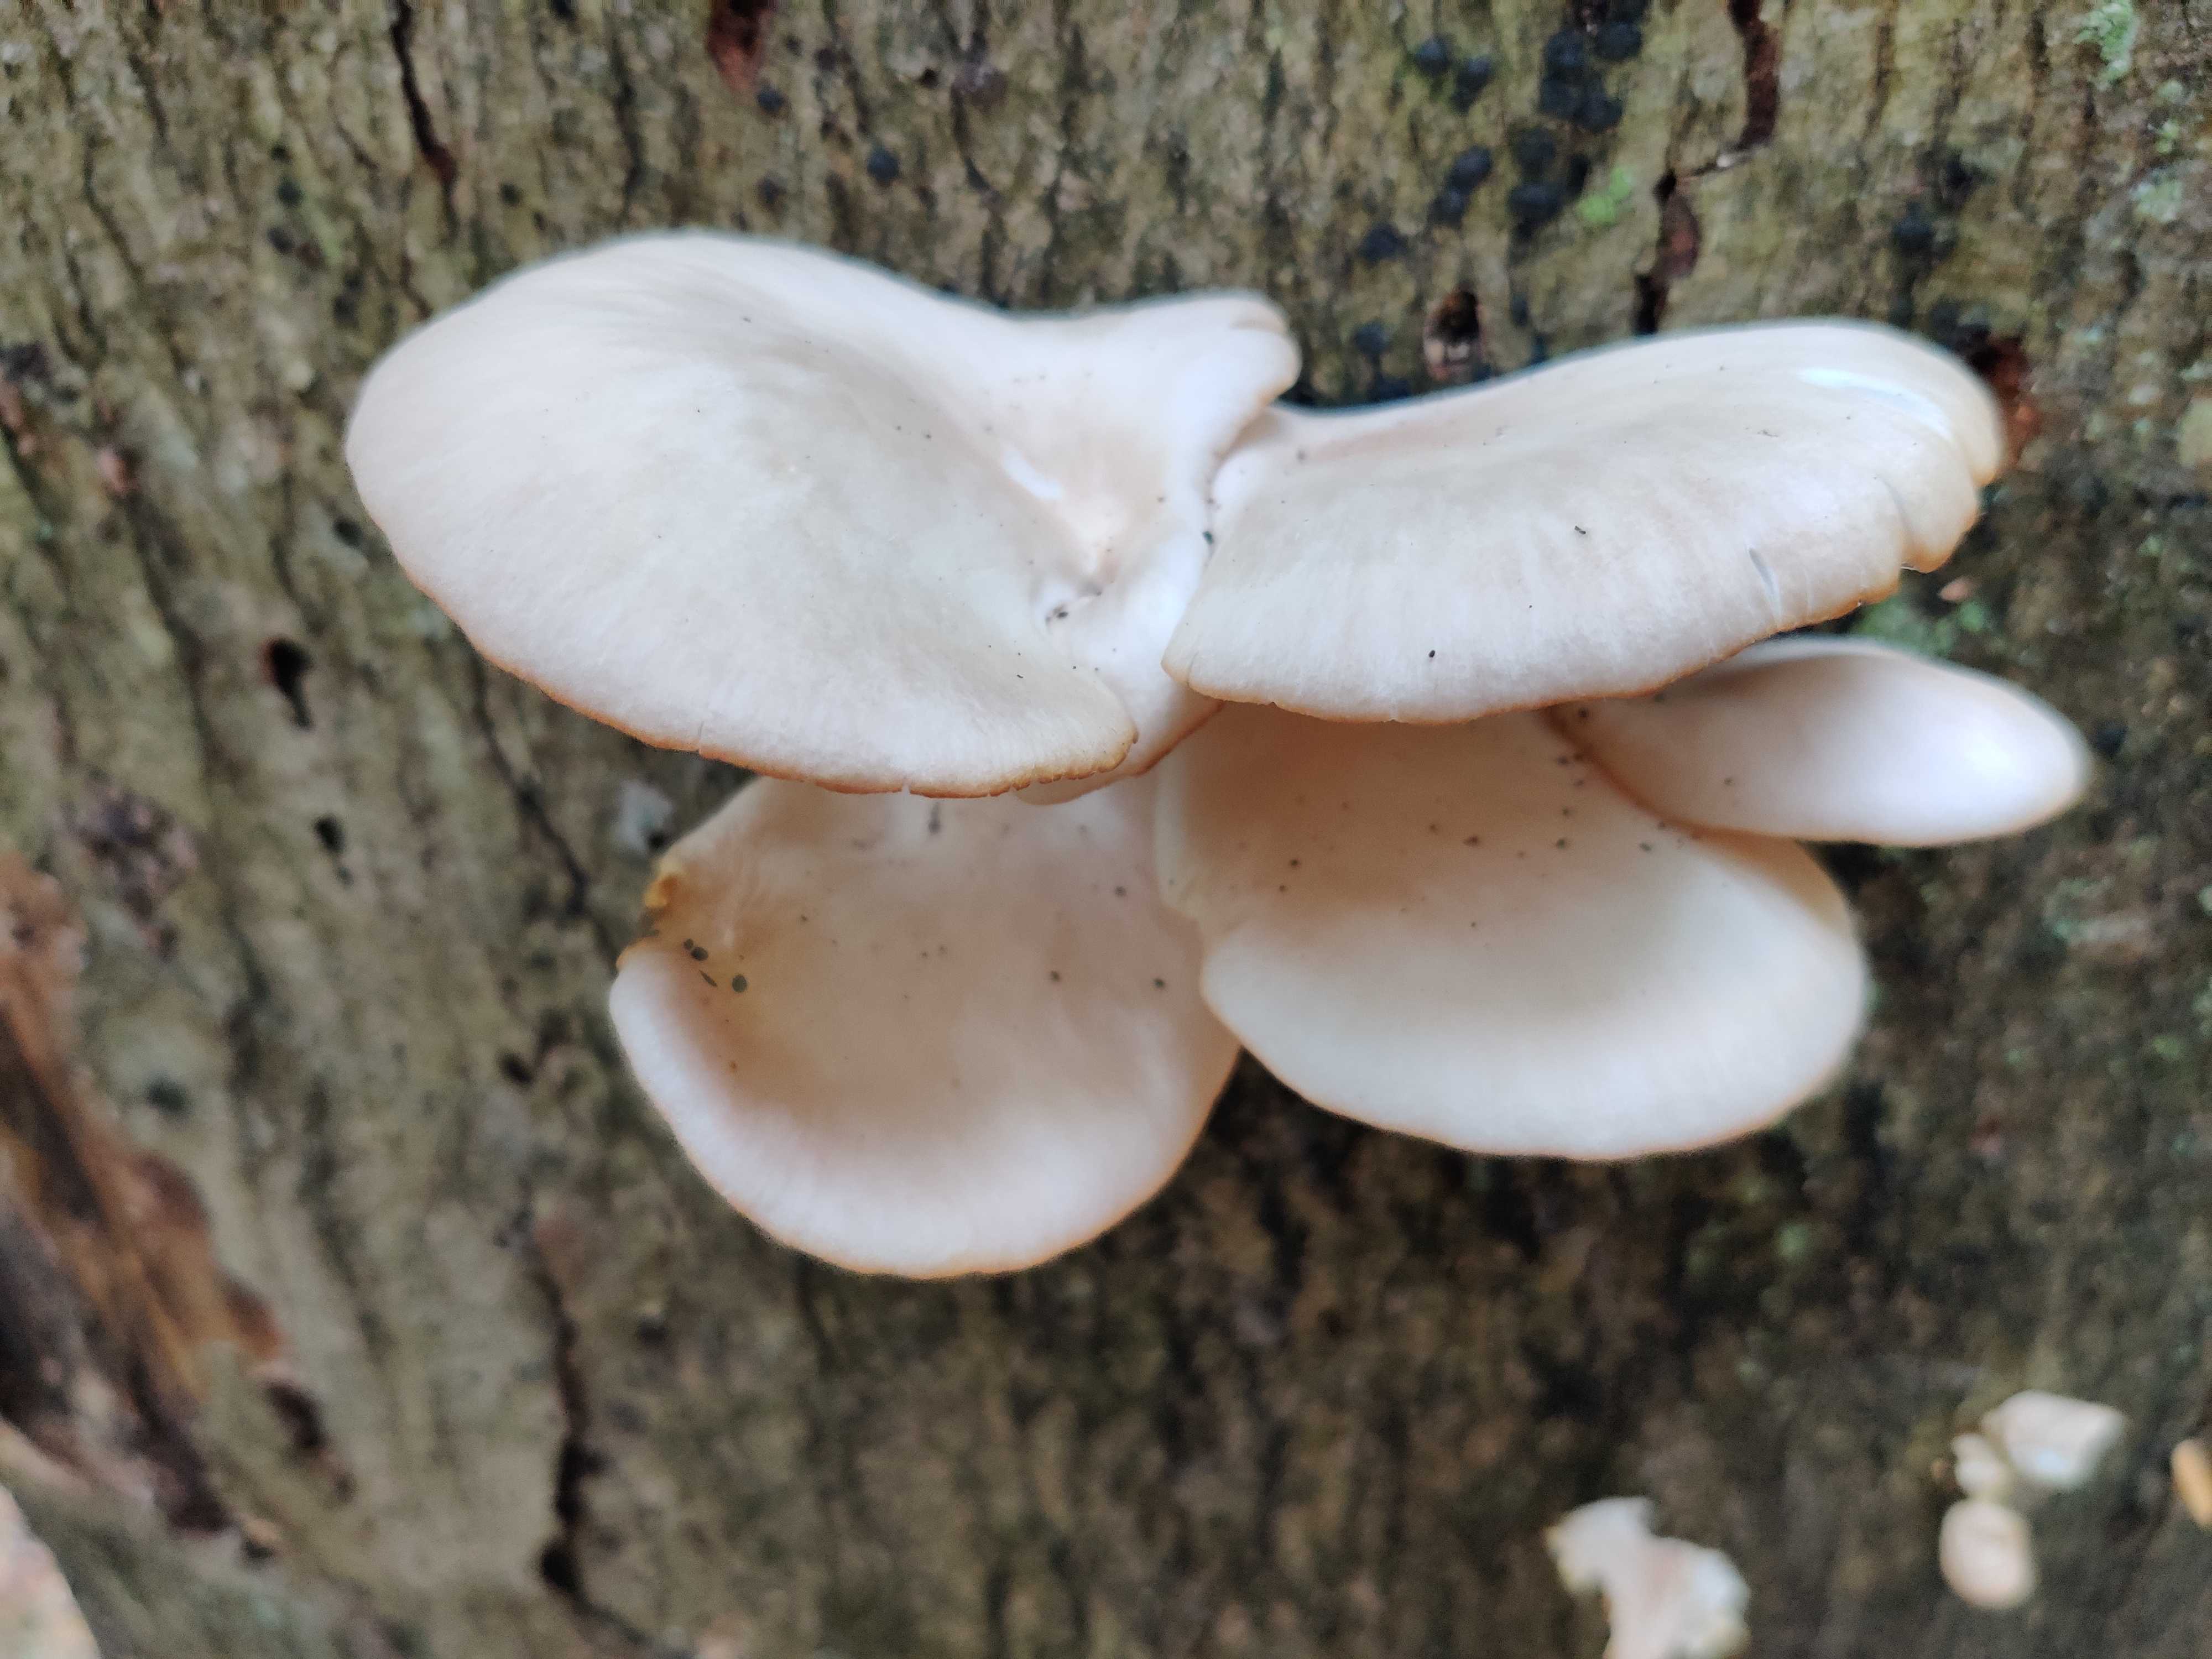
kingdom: Fungi
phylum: Basidiomycota
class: Agaricomycetes
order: Agaricales
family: Pleurotaceae
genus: Pleurotus
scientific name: Pleurotus pulmonarius
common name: sommer-østershat
